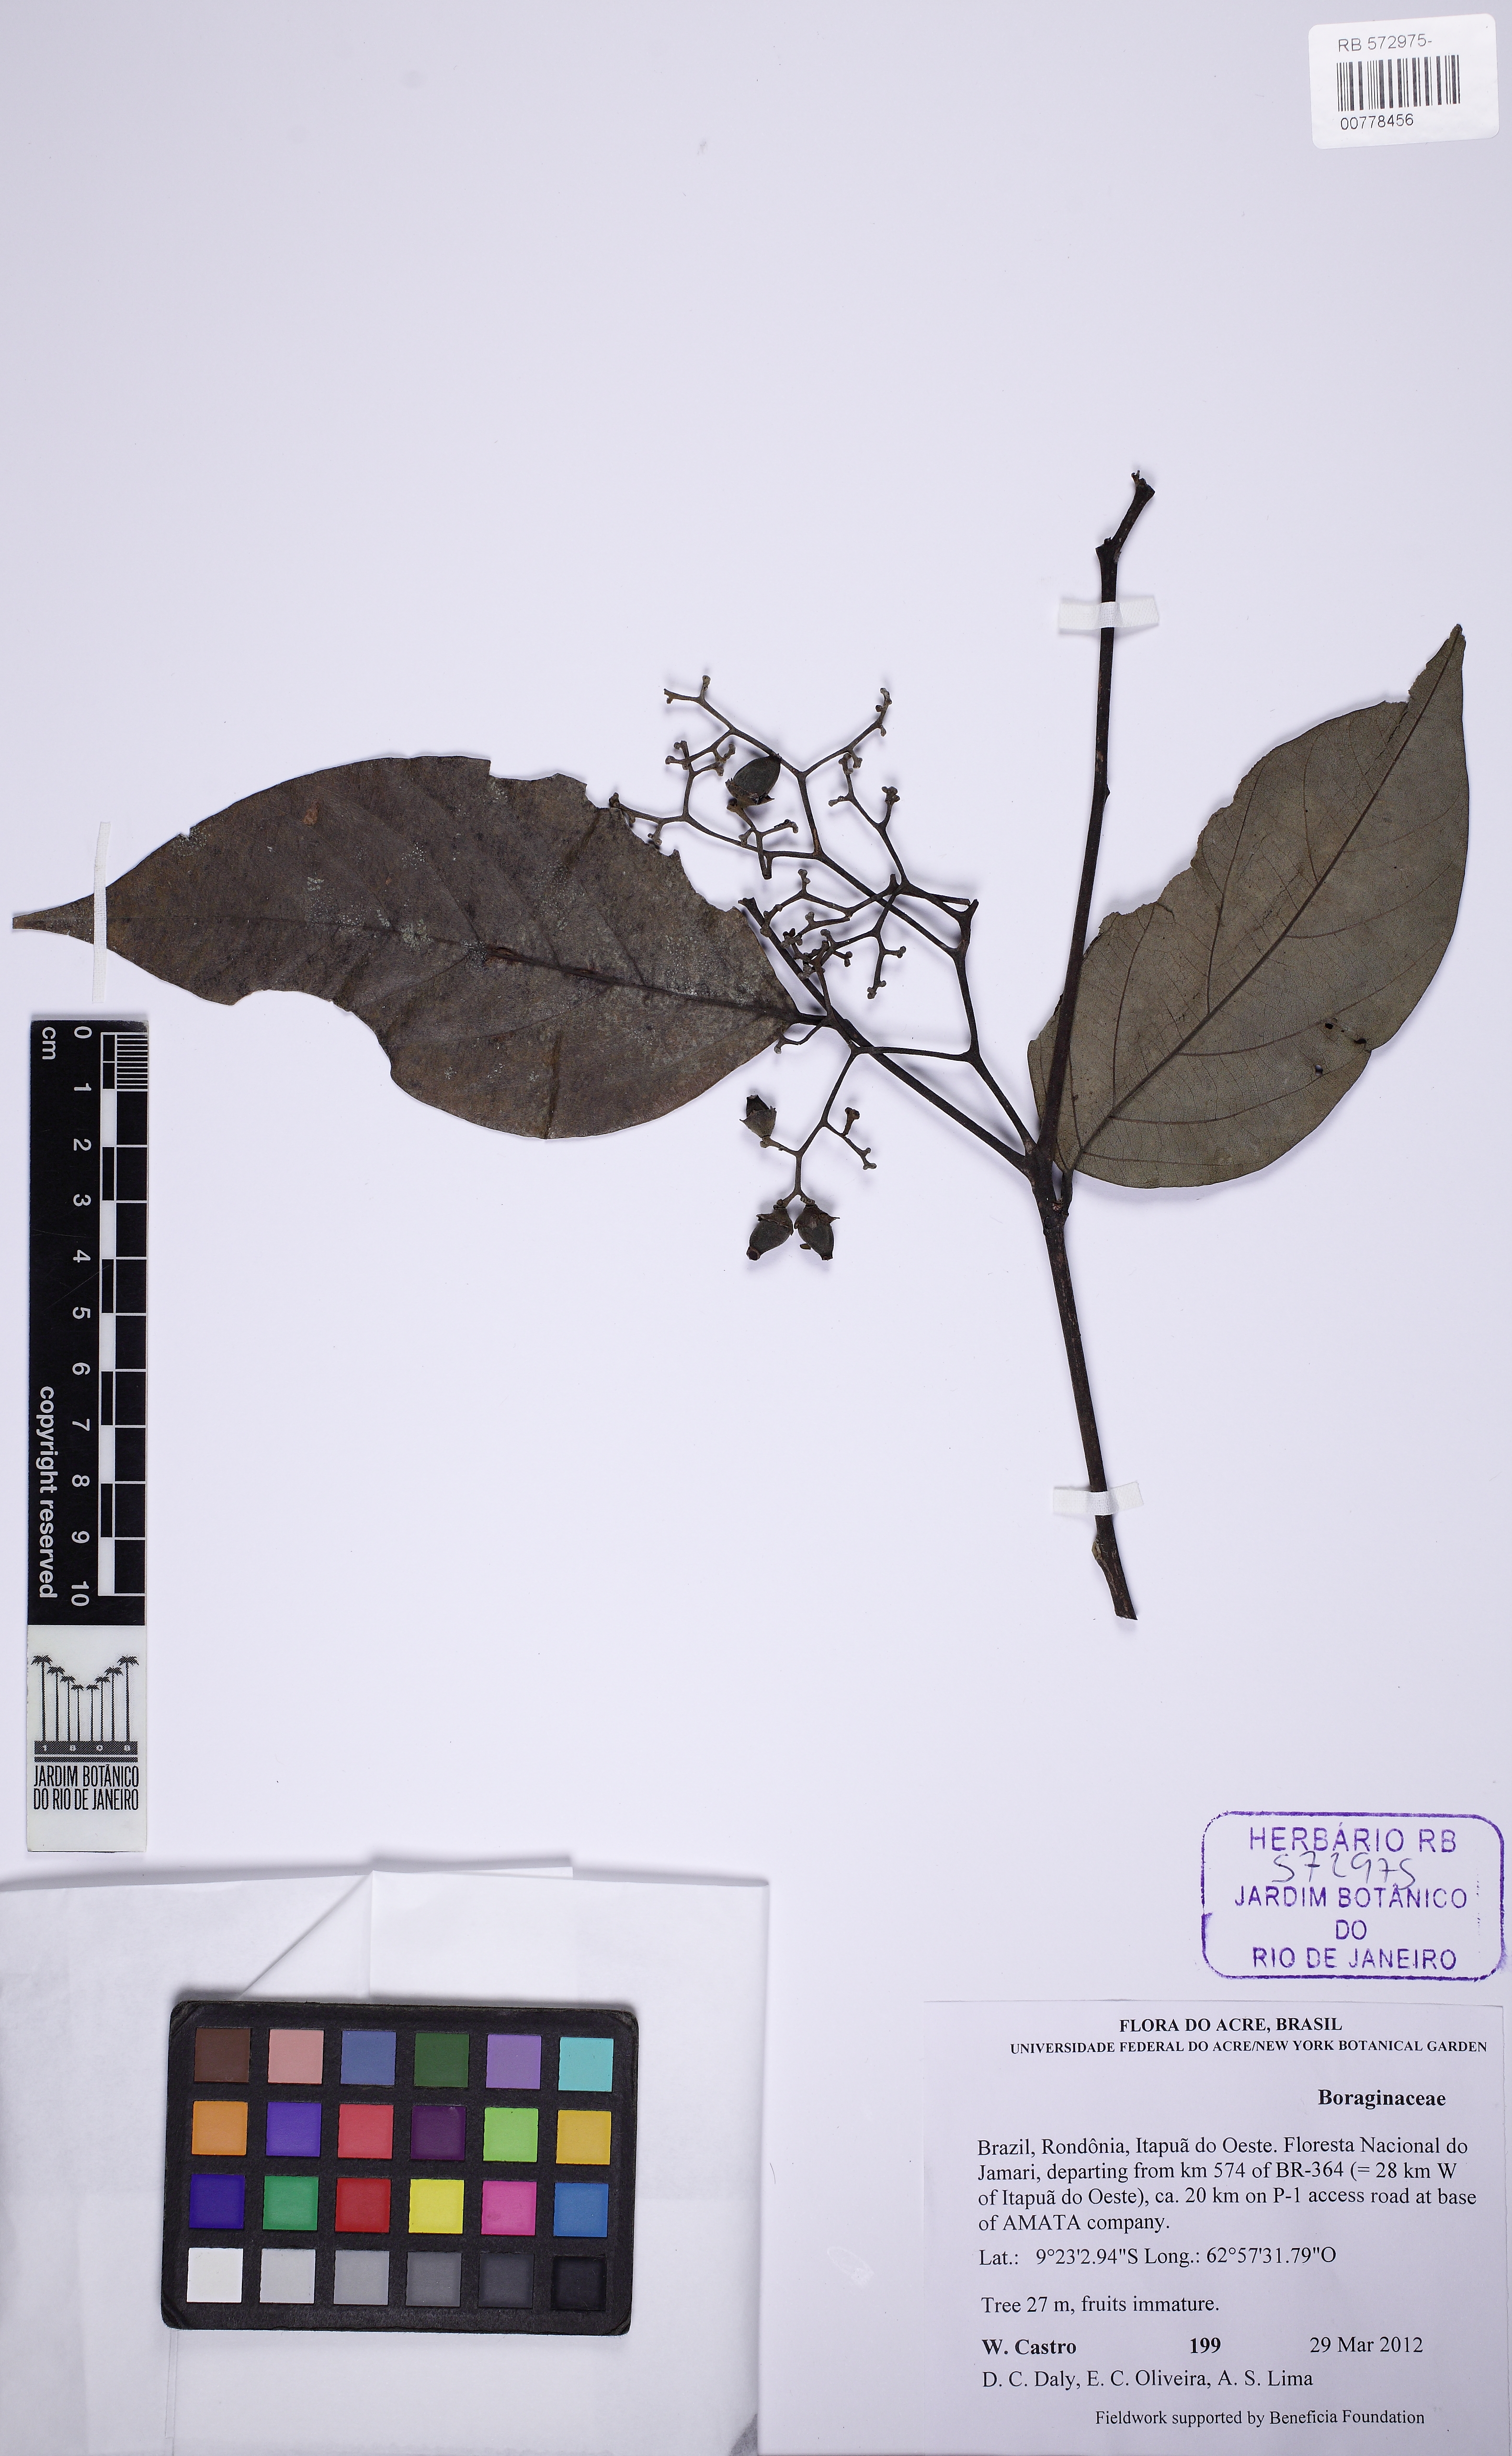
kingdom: Plantae
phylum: Tracheophyta
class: Magnoliopsida
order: Boraginales
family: Cordiaceae
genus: Cordia
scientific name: Cordia
